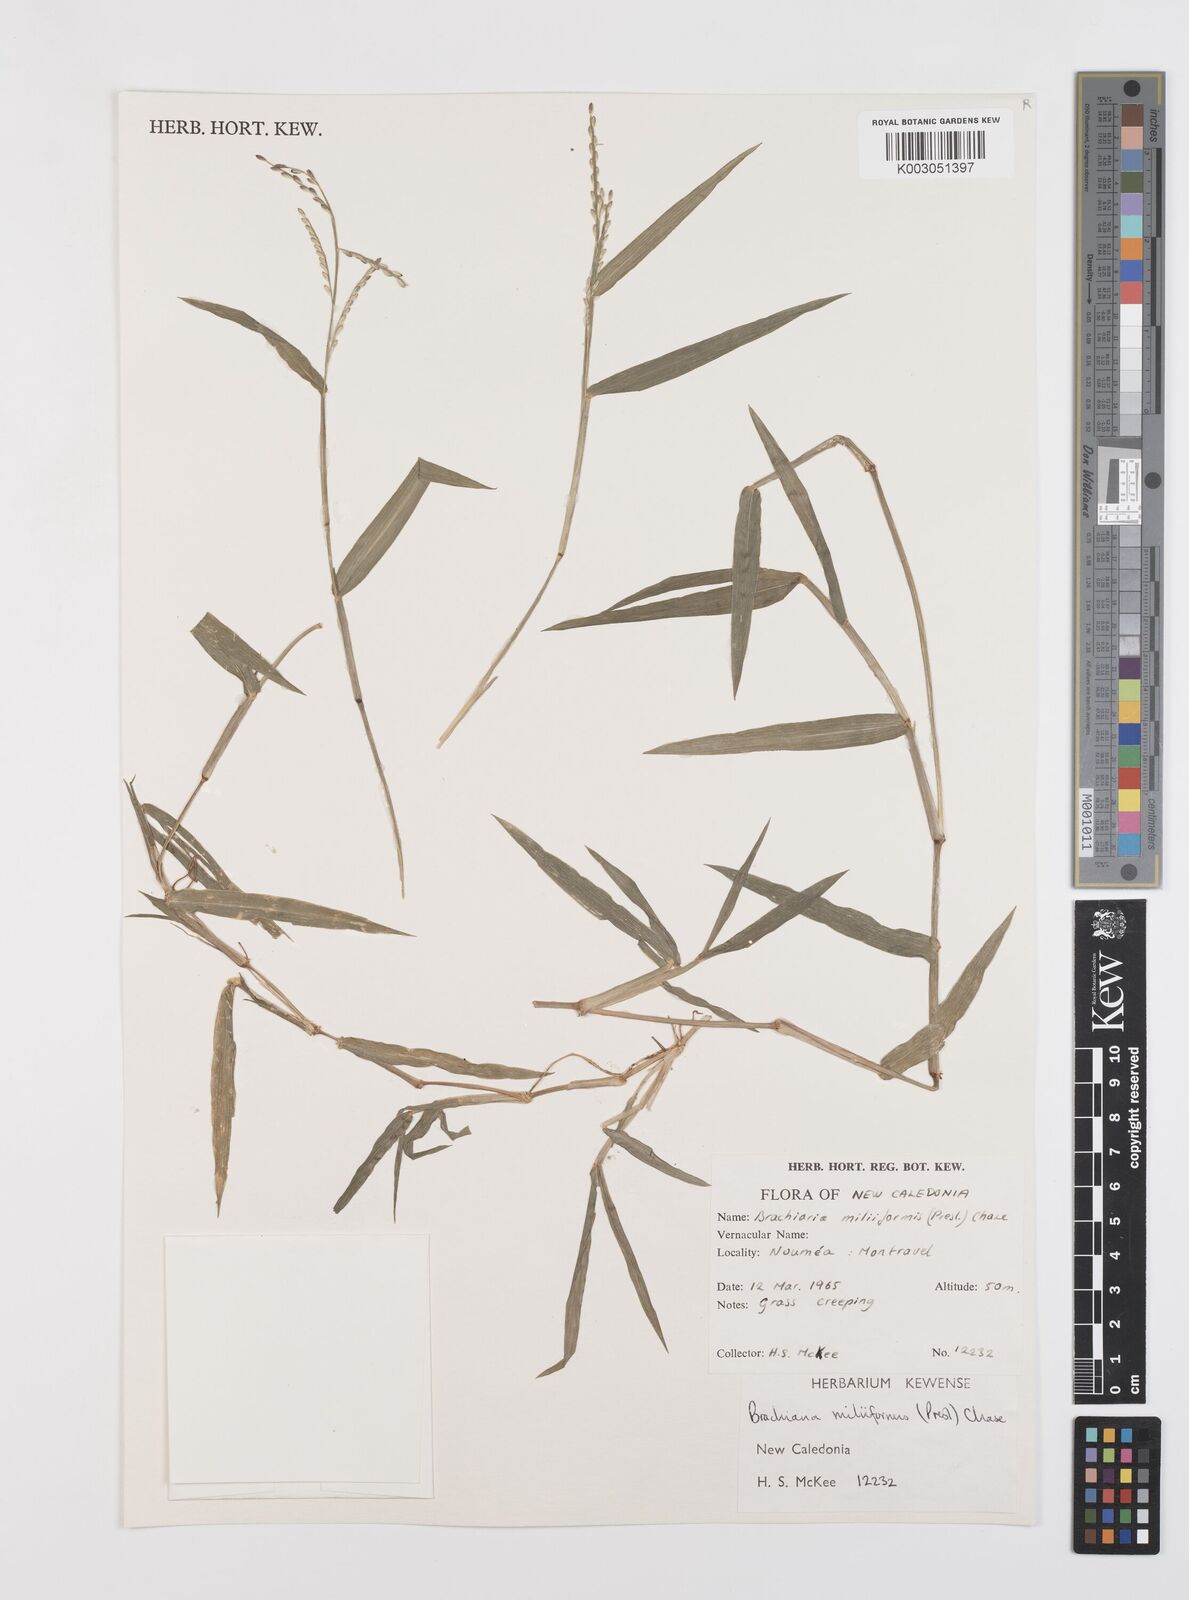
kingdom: Plantae
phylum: Tracheophyta
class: Liliopsida
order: Poales
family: Poaceae
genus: Urochloa
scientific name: Urochloa subquadripara
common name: Armgrass millet
